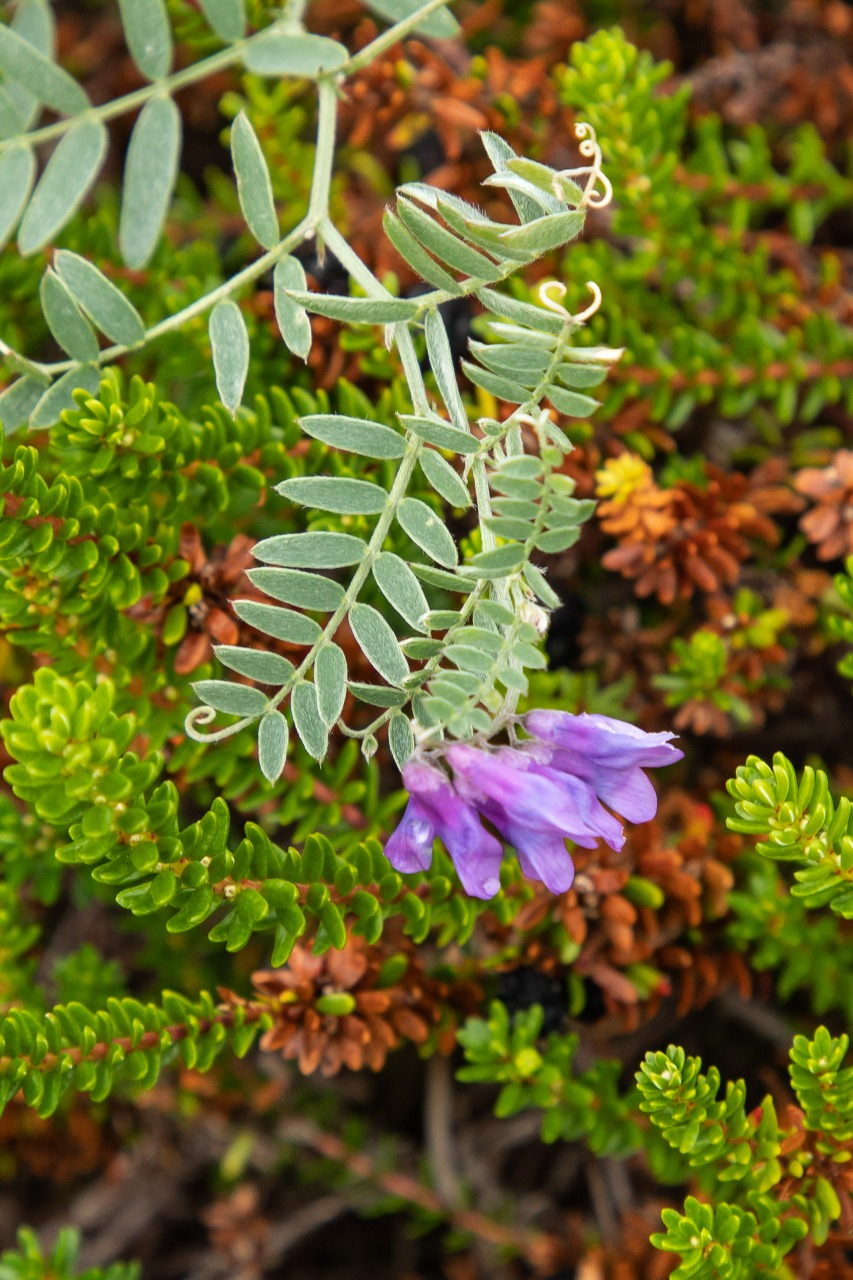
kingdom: Plantae
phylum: Tracheophyta
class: Magnoliopsida
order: Fabales
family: Fabaceae
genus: Vicia
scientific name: Vicia cracca
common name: Muse-vikke
